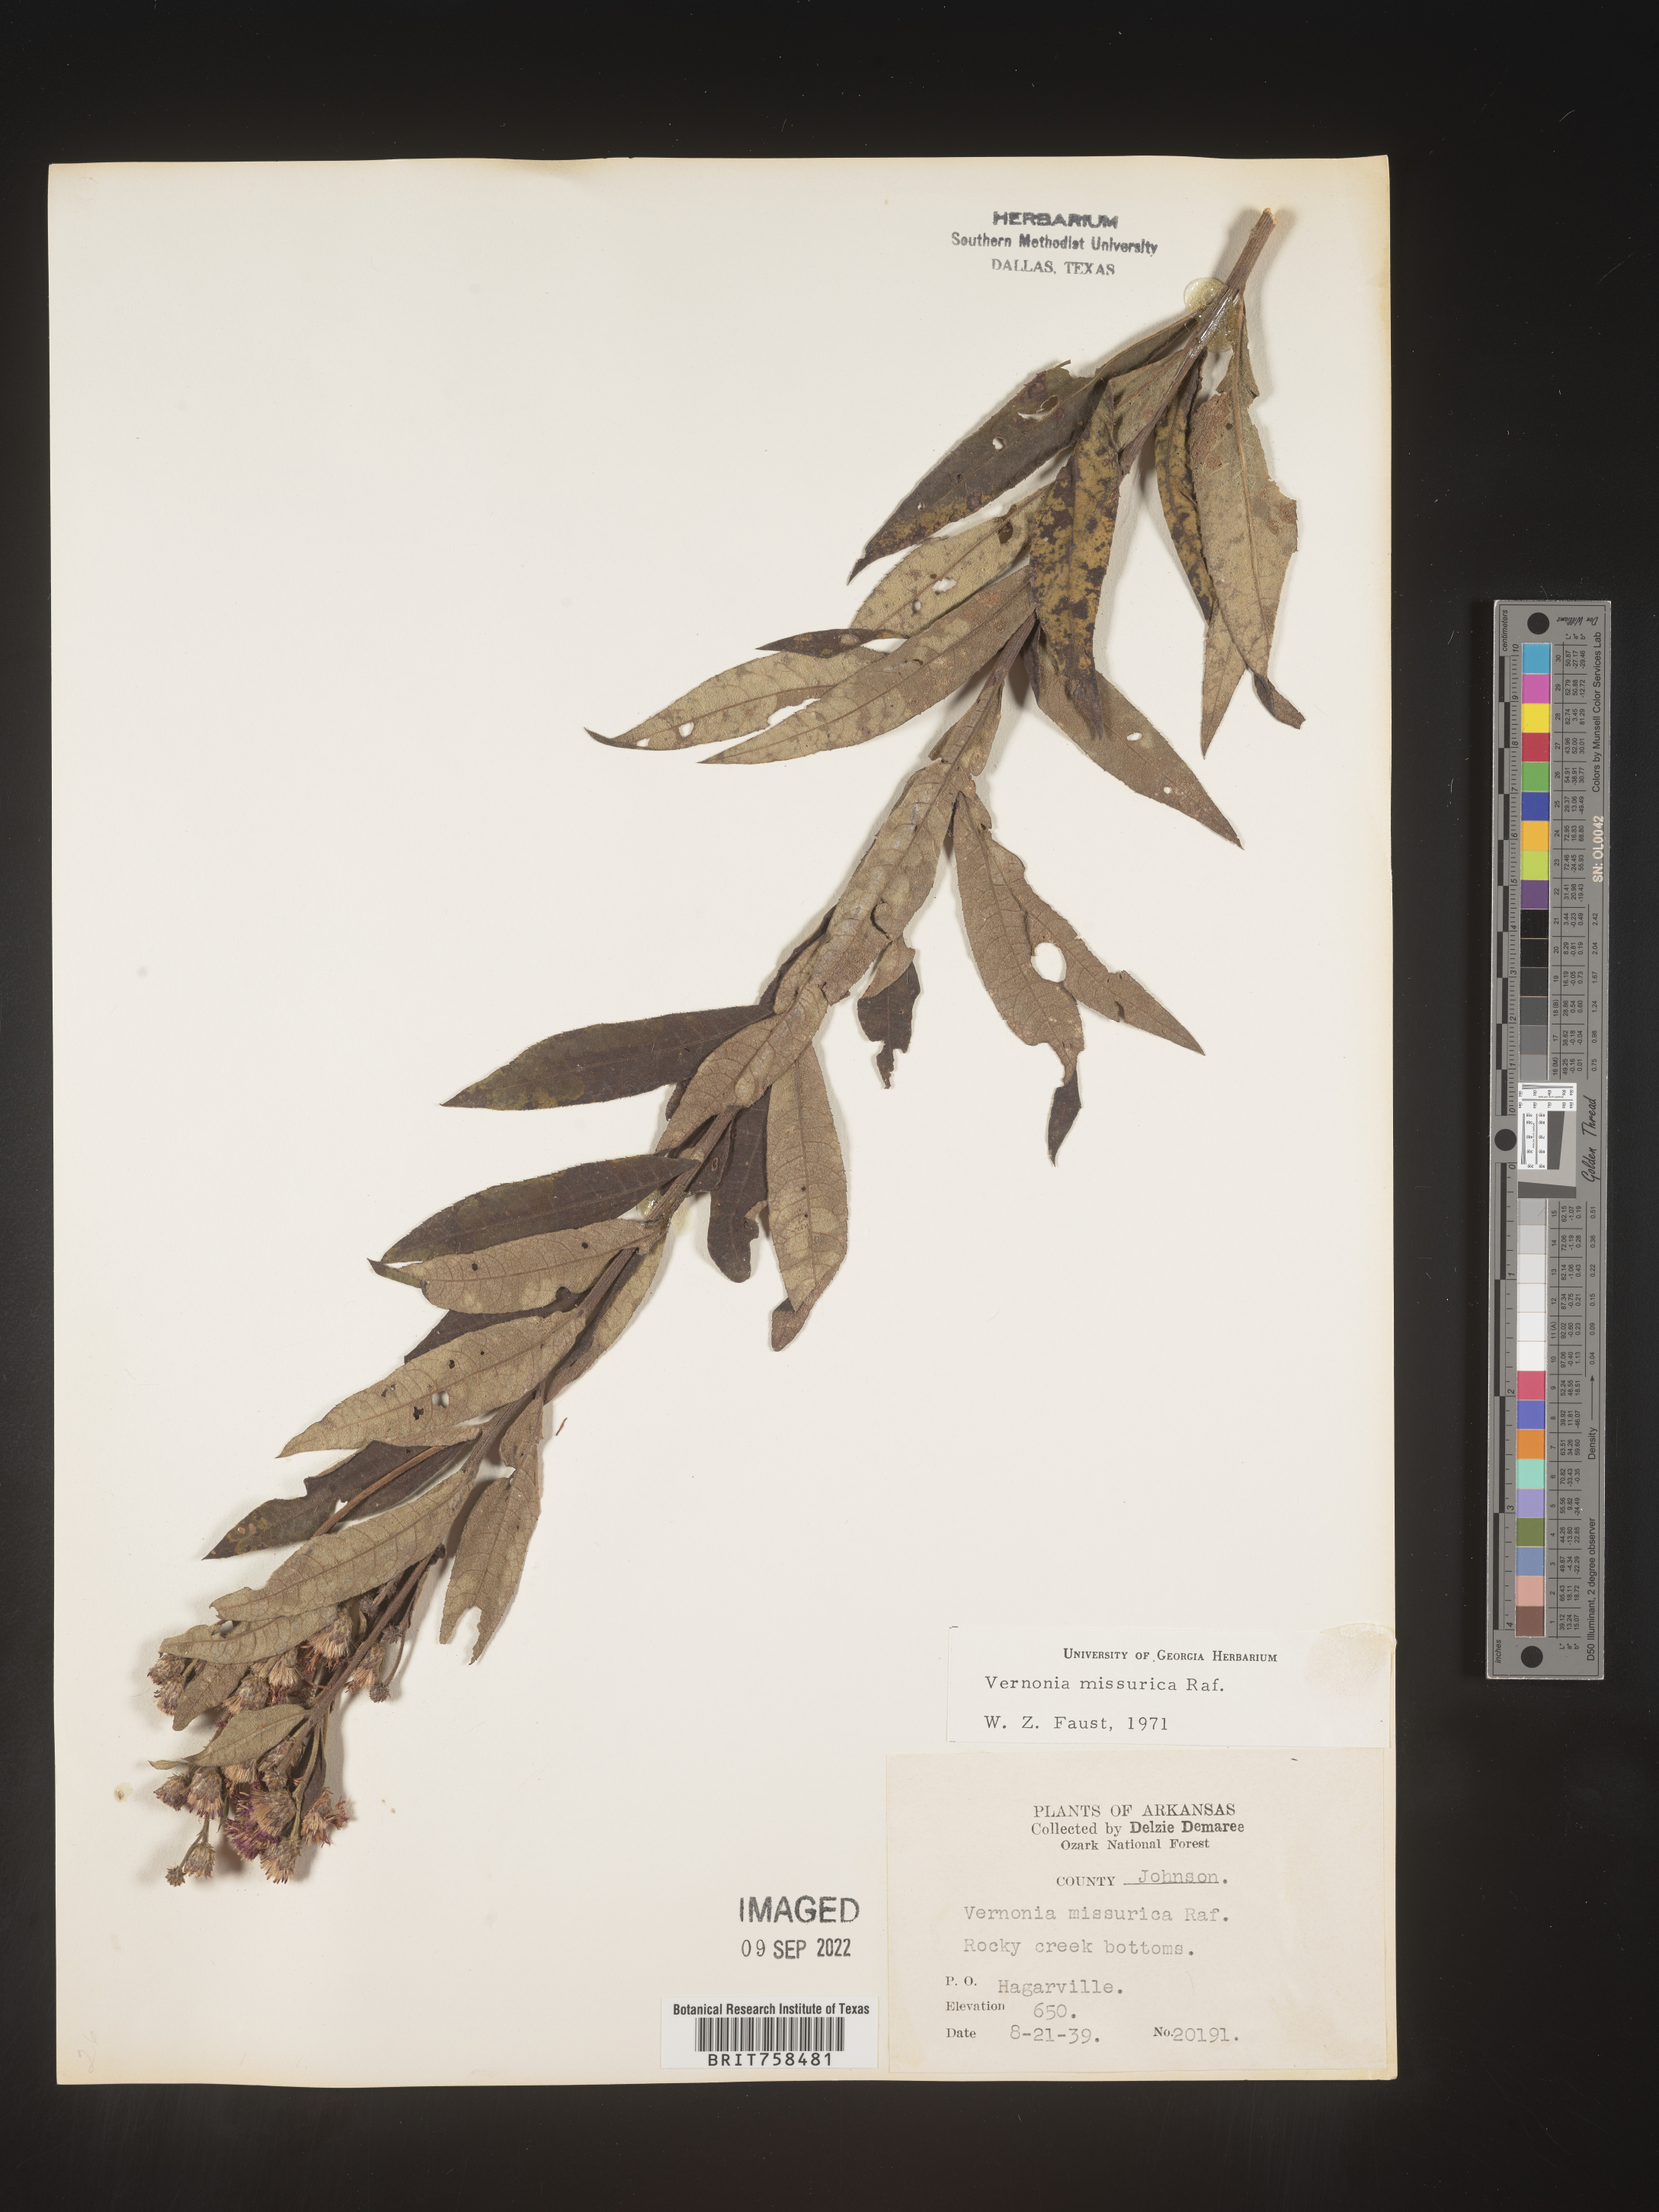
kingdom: Plantae
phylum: Tracheophyta
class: Magnoliopsida
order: Asterales
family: Asteraceae
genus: Vernonia
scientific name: Vernonia missurica
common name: Missouri ironweed
